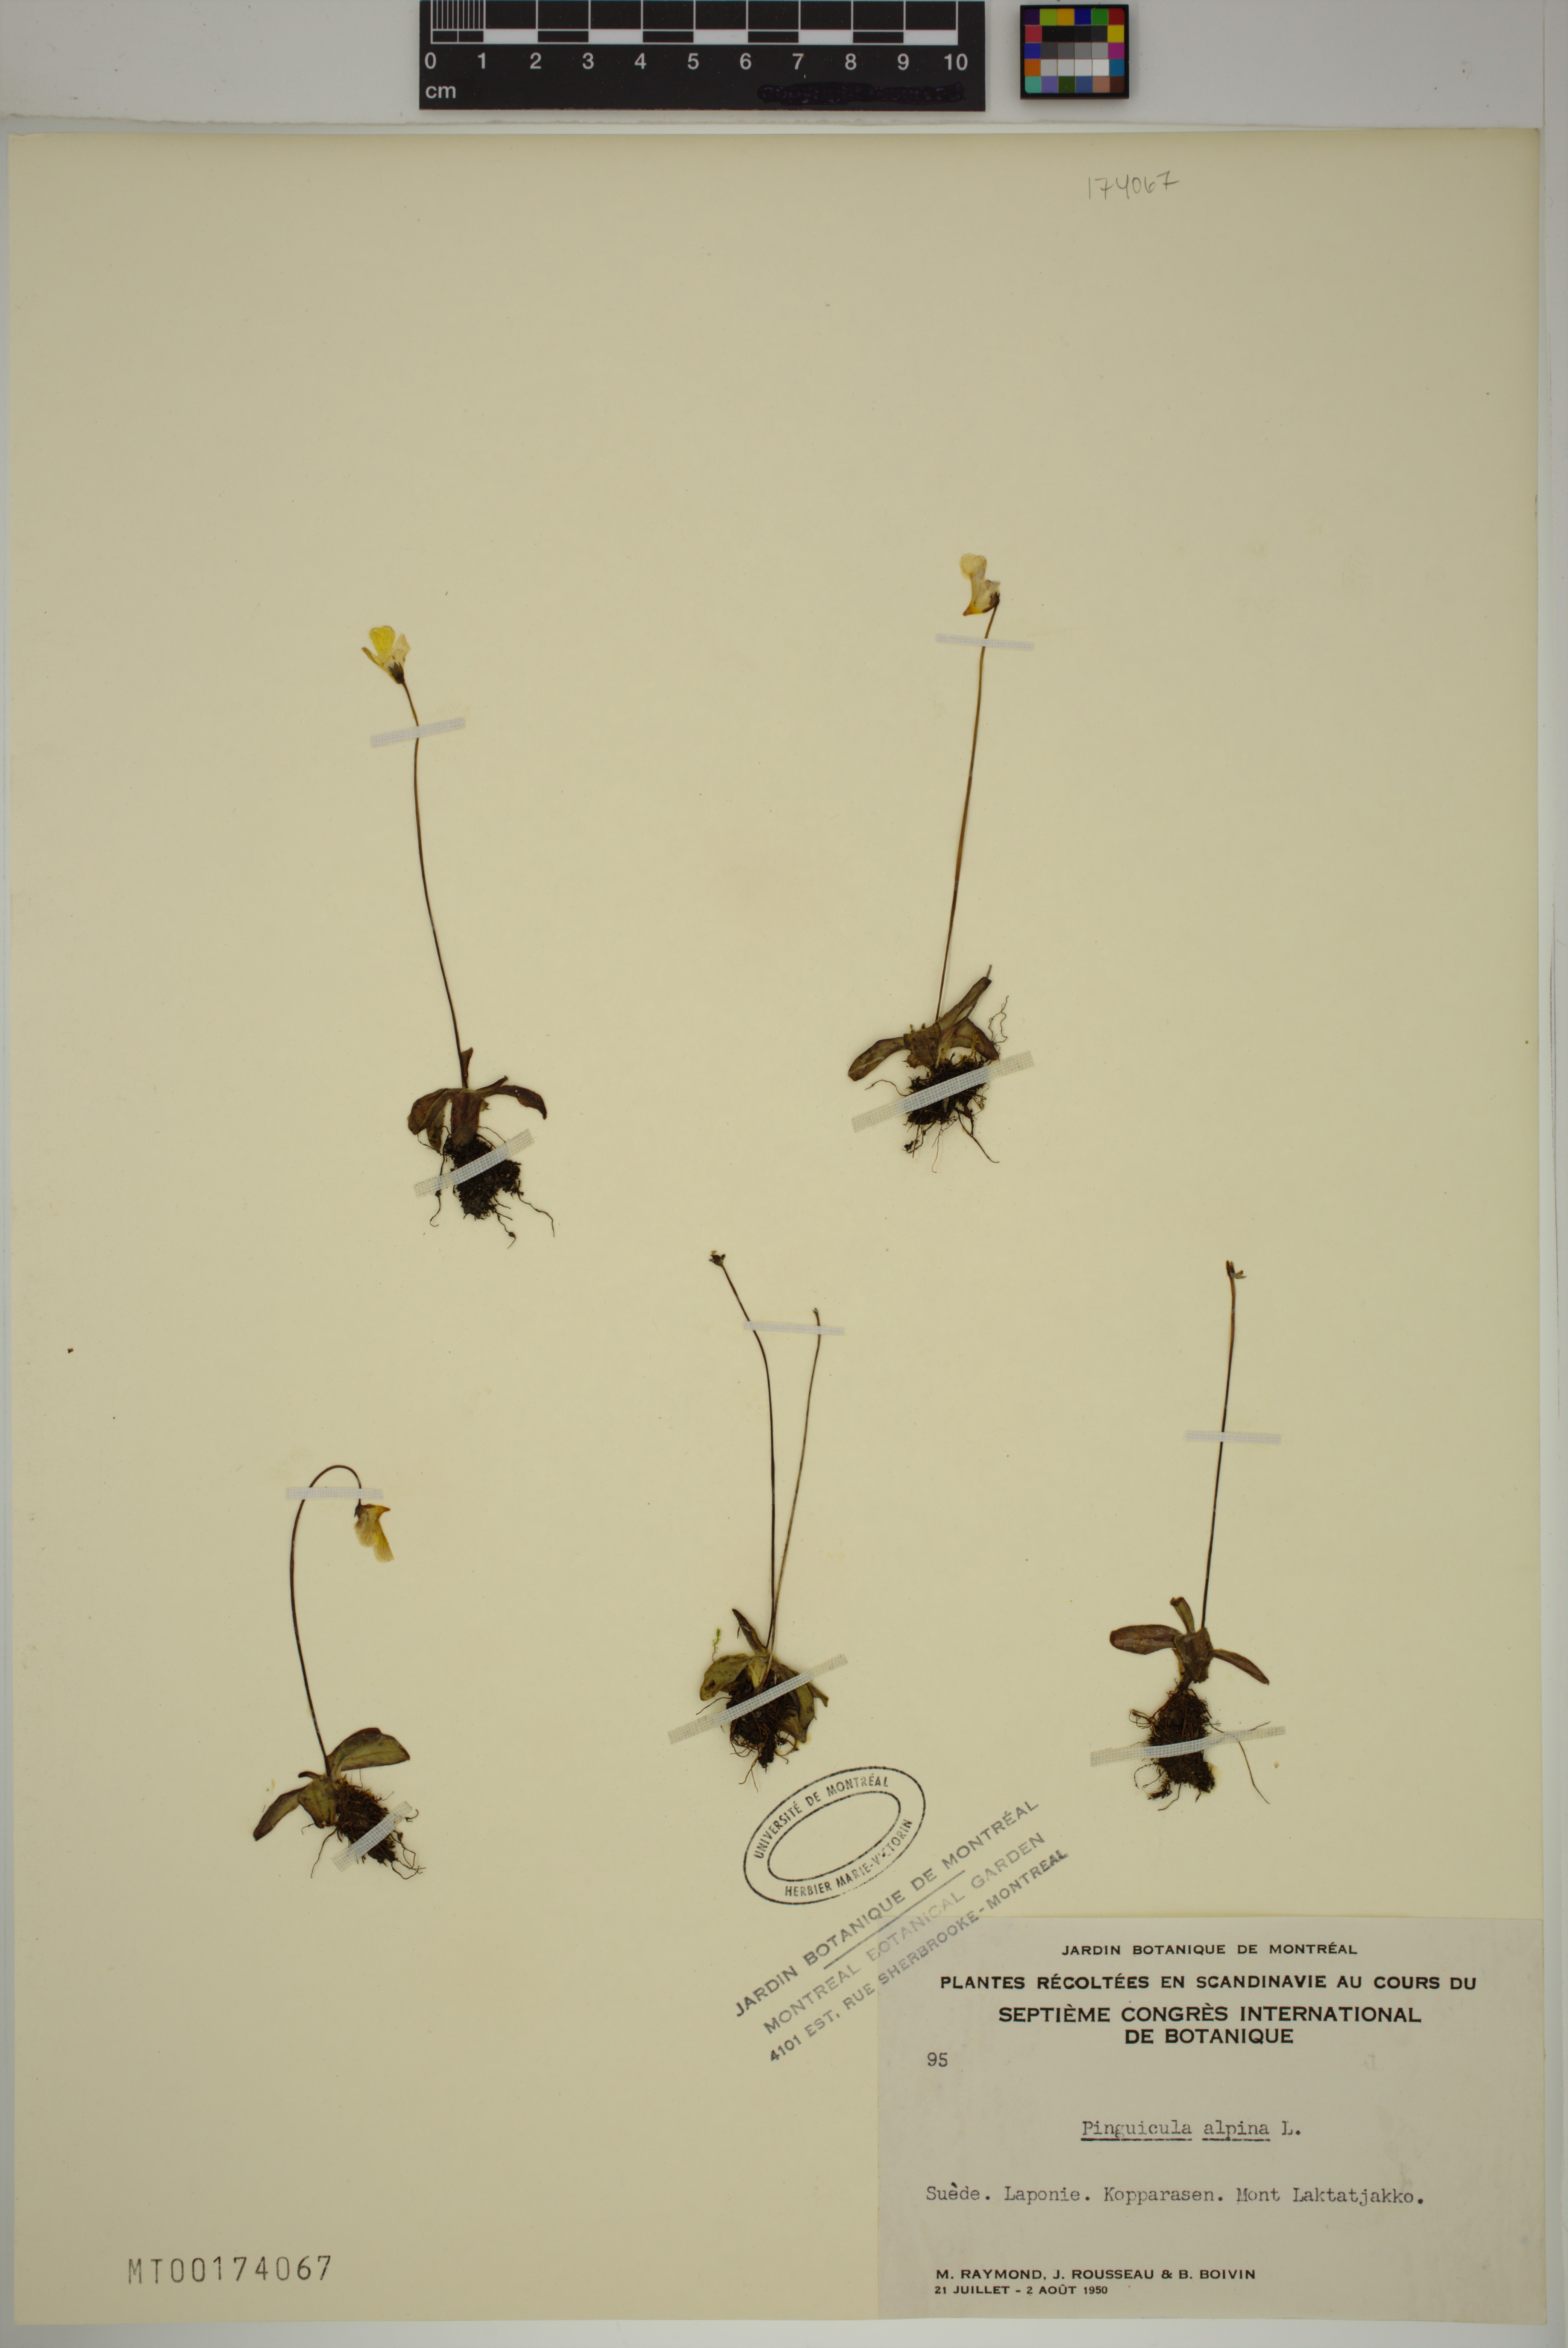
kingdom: Plantae
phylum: Tracheophyta
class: Magnoliopsida
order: Lamiales
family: Lentibulariaceae
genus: Pinguicula
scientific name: Pinguicula alpina
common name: Alpine butterwort
